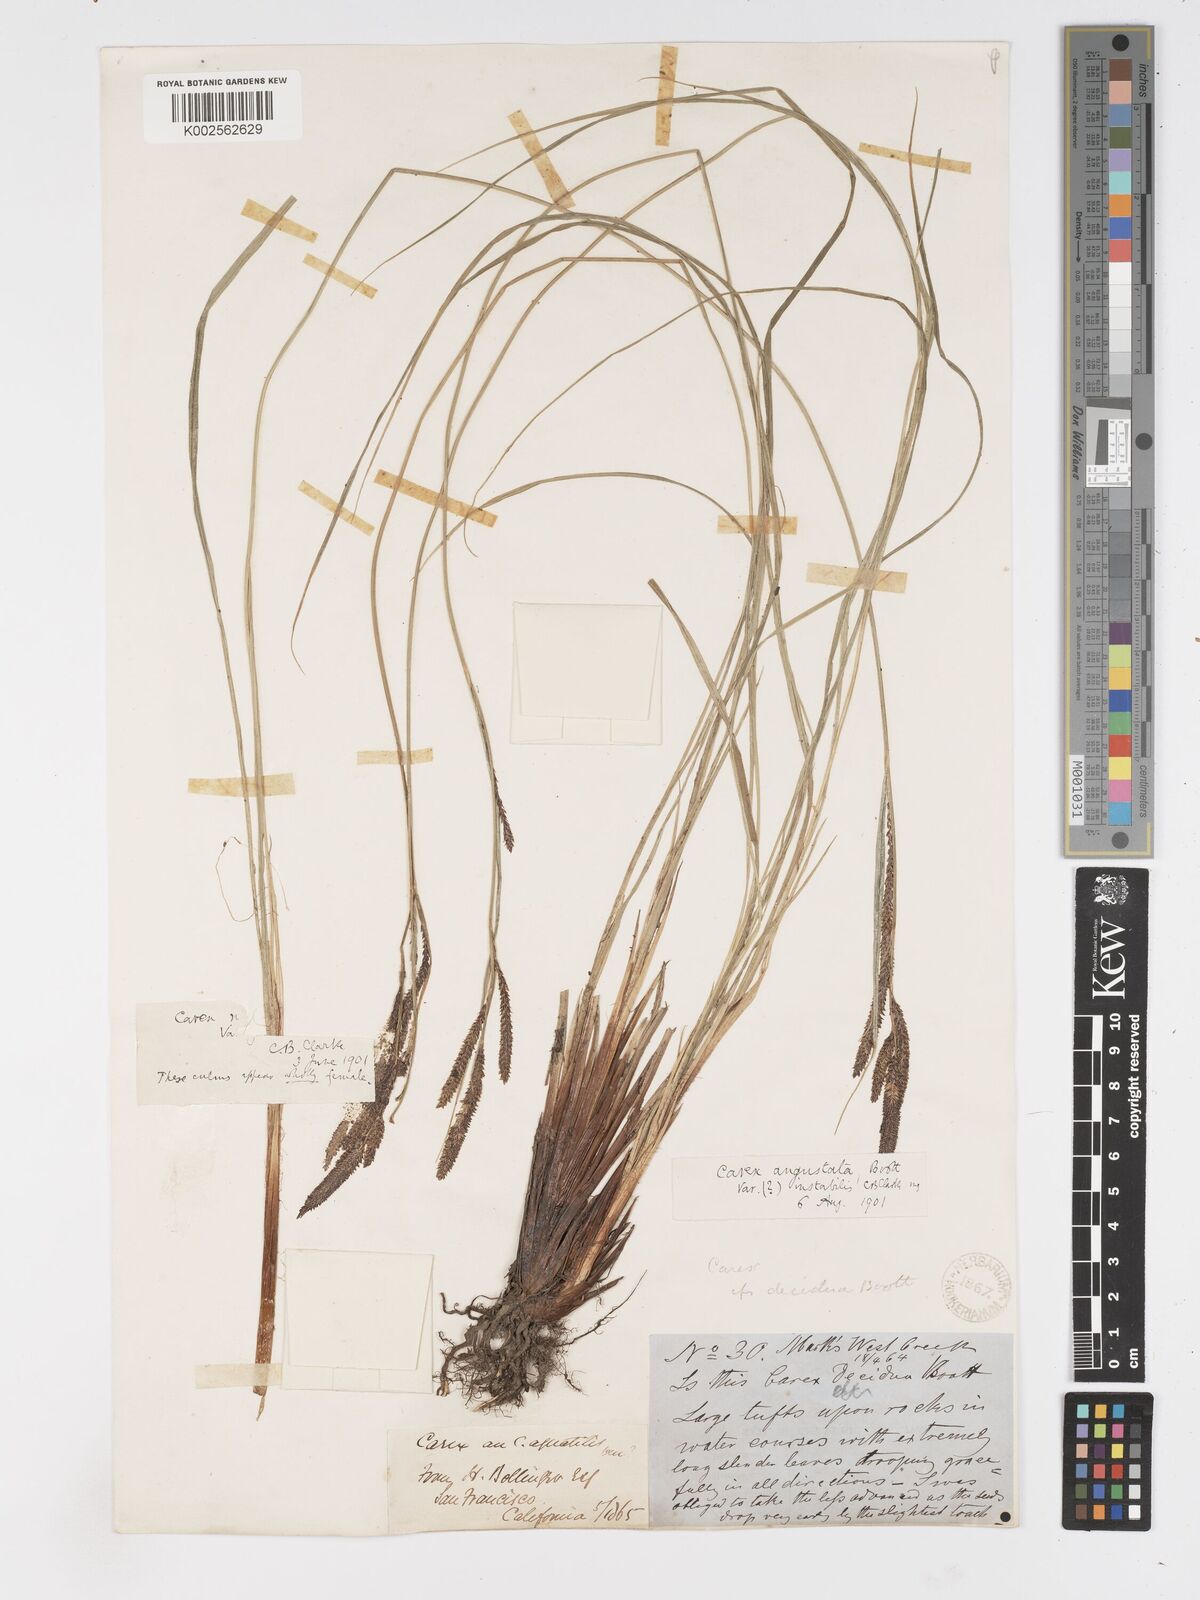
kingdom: Plantae
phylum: Tracheophyta
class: Liliopsida
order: Poales
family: Cyperaceae
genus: Carex
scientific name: Carex stricta
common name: Hummock sedge
